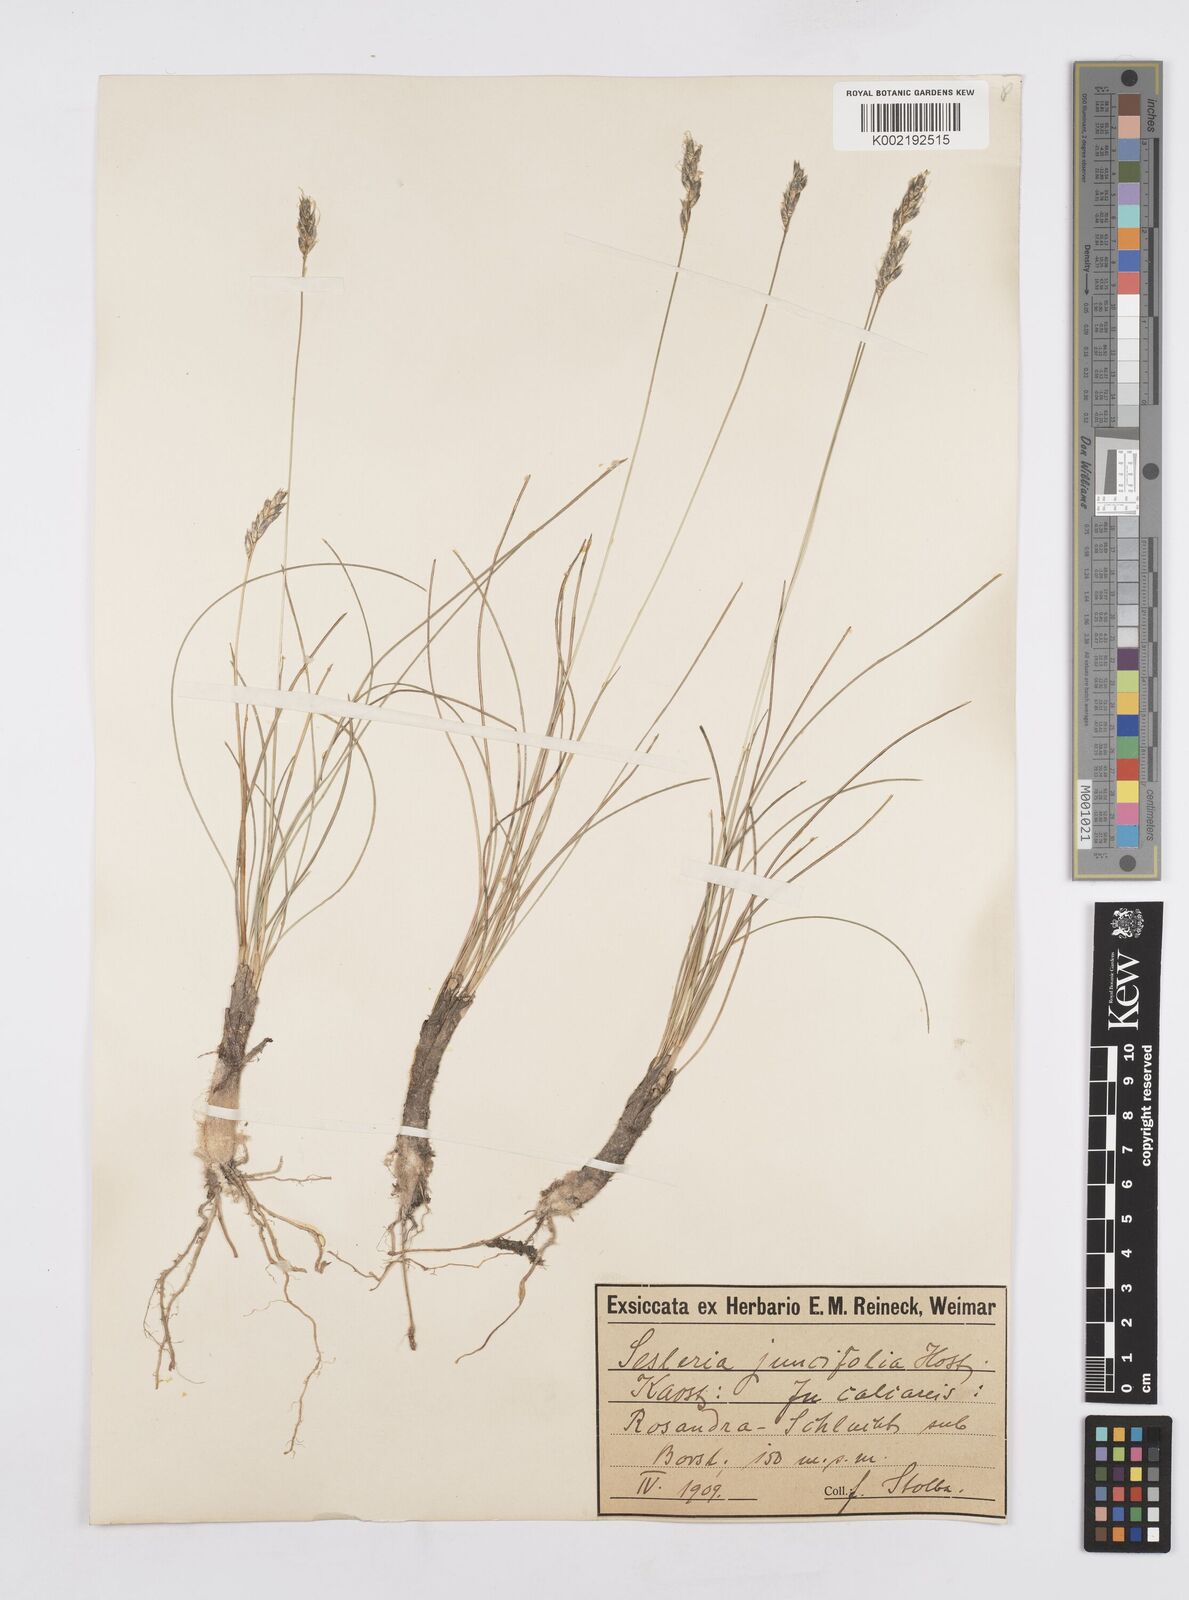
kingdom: Plantae
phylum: Tracheophyta
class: Liliopsida
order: Poales
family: Poaceae
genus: Sesleria
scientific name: Sesleria juncifolia
